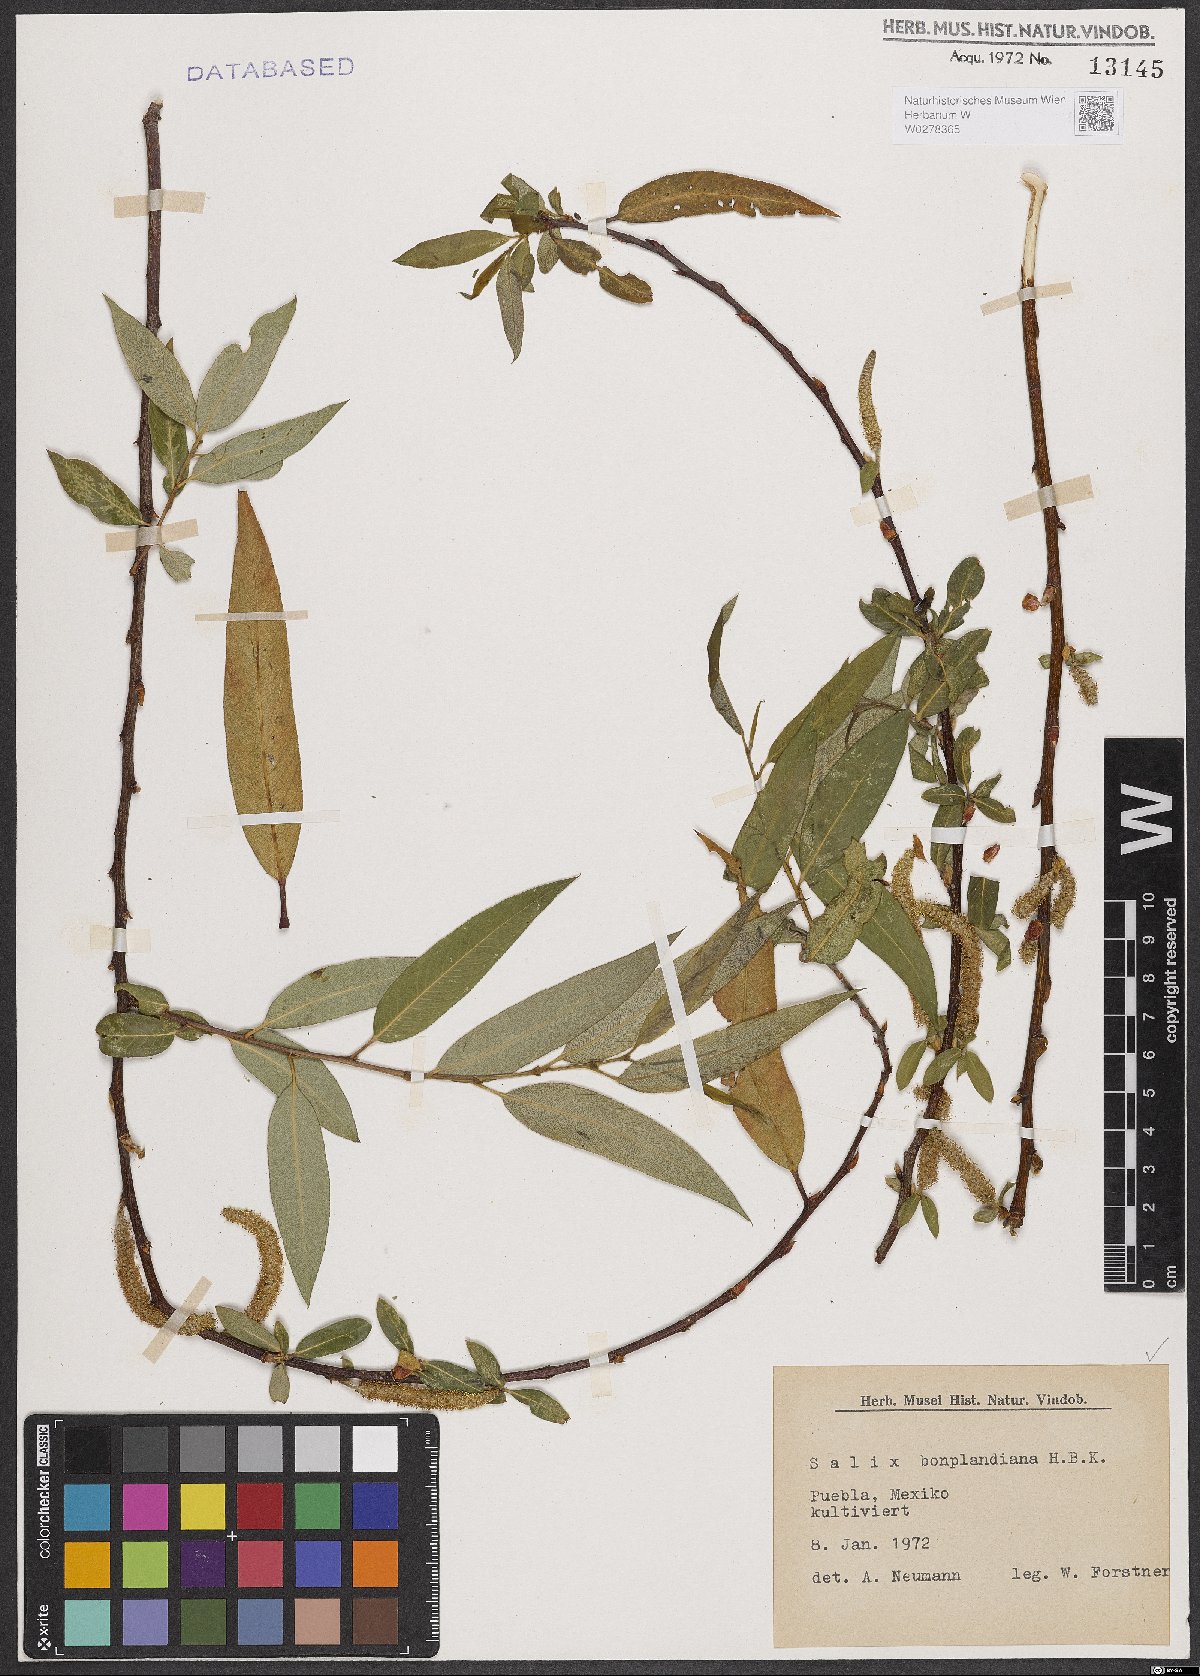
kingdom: Plantae
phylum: Tracheophyta
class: Magnoliopsida
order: Malpighiales
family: Salicaceae
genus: Salix
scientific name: Salix bonplandiana
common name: Bonpland’s willow
